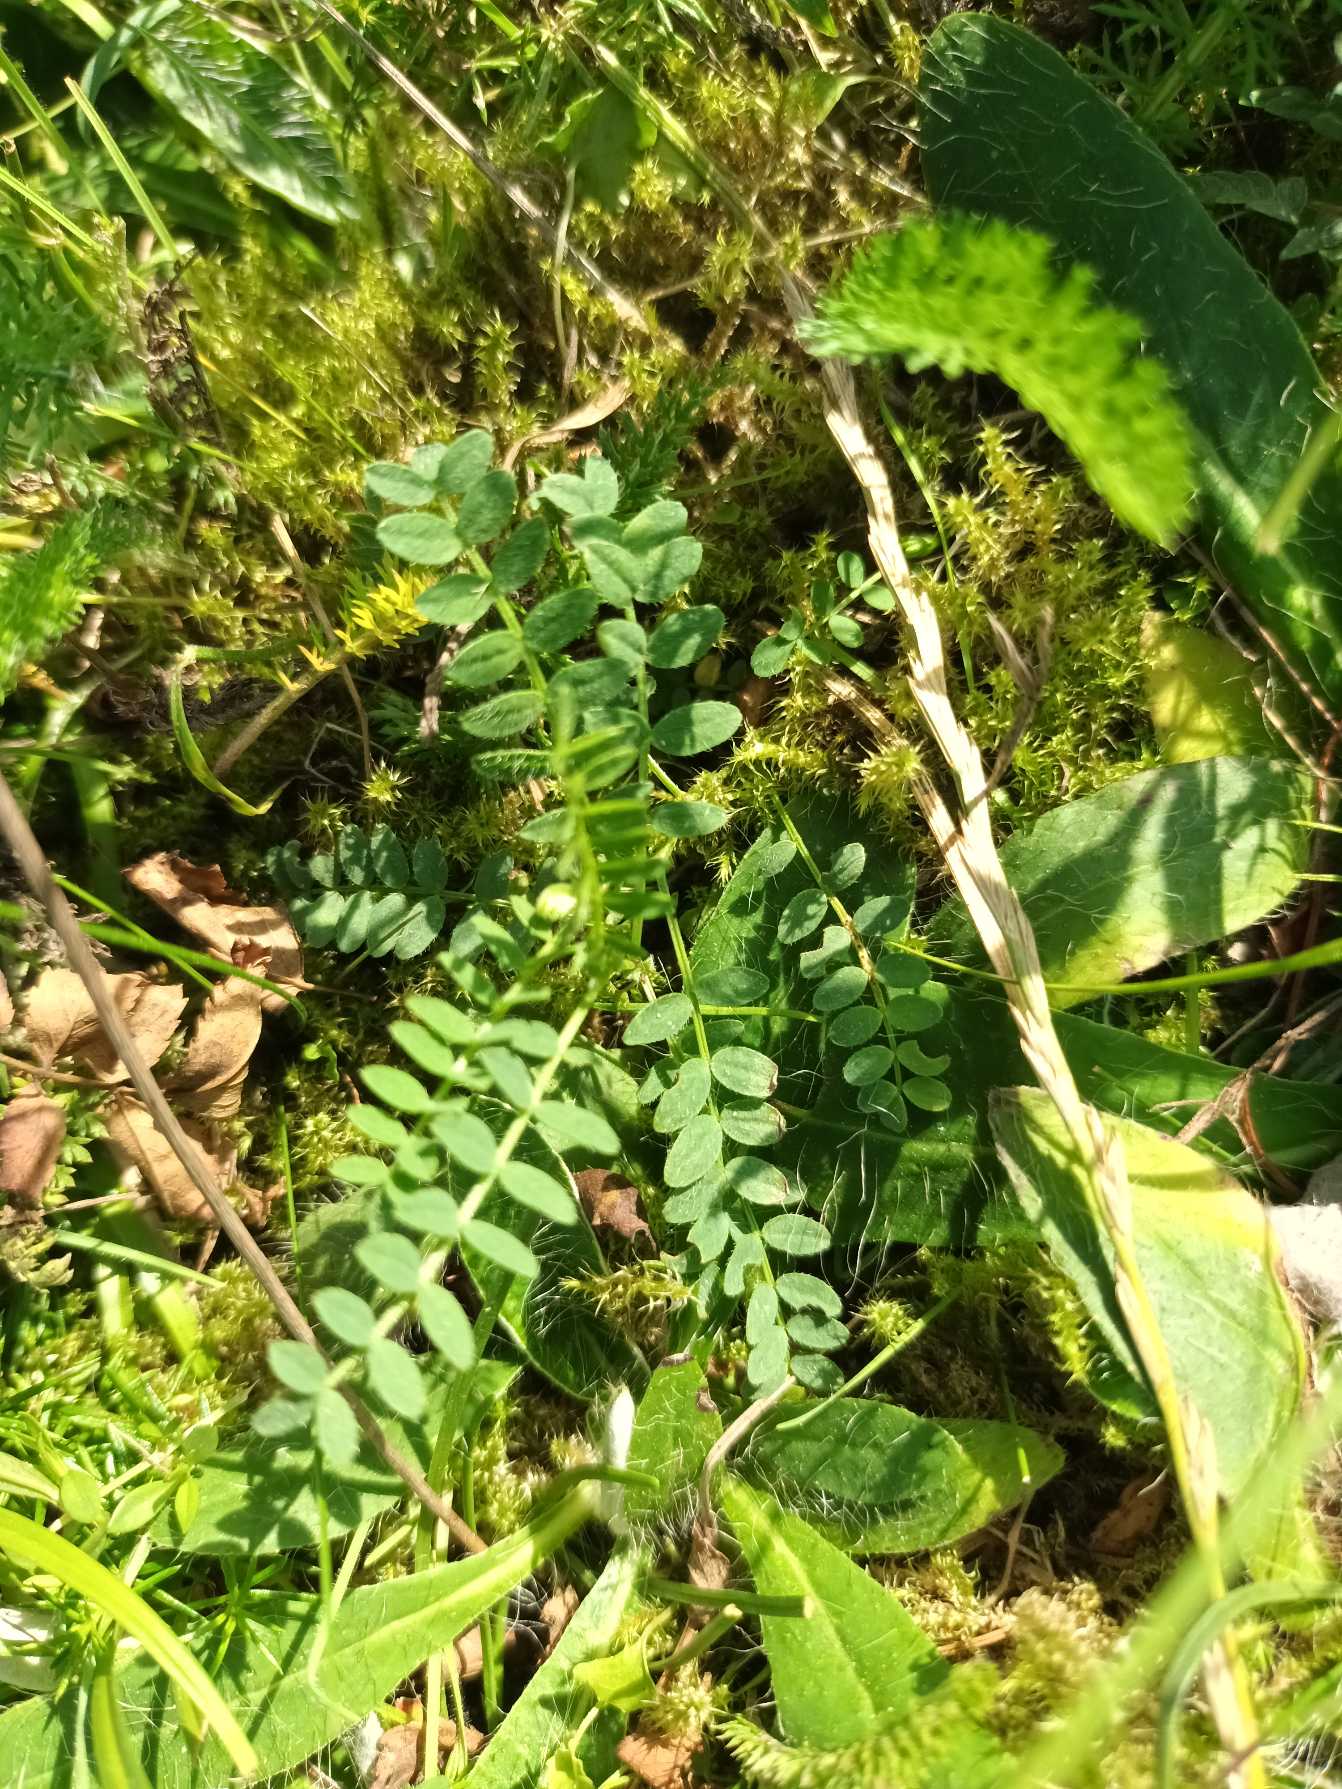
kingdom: Plantae
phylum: Tracheophyta
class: Magnoliopsida
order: Fabales
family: Fabaceae
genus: Astragalus
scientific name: Astragalus danicus
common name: Dansk astragel
